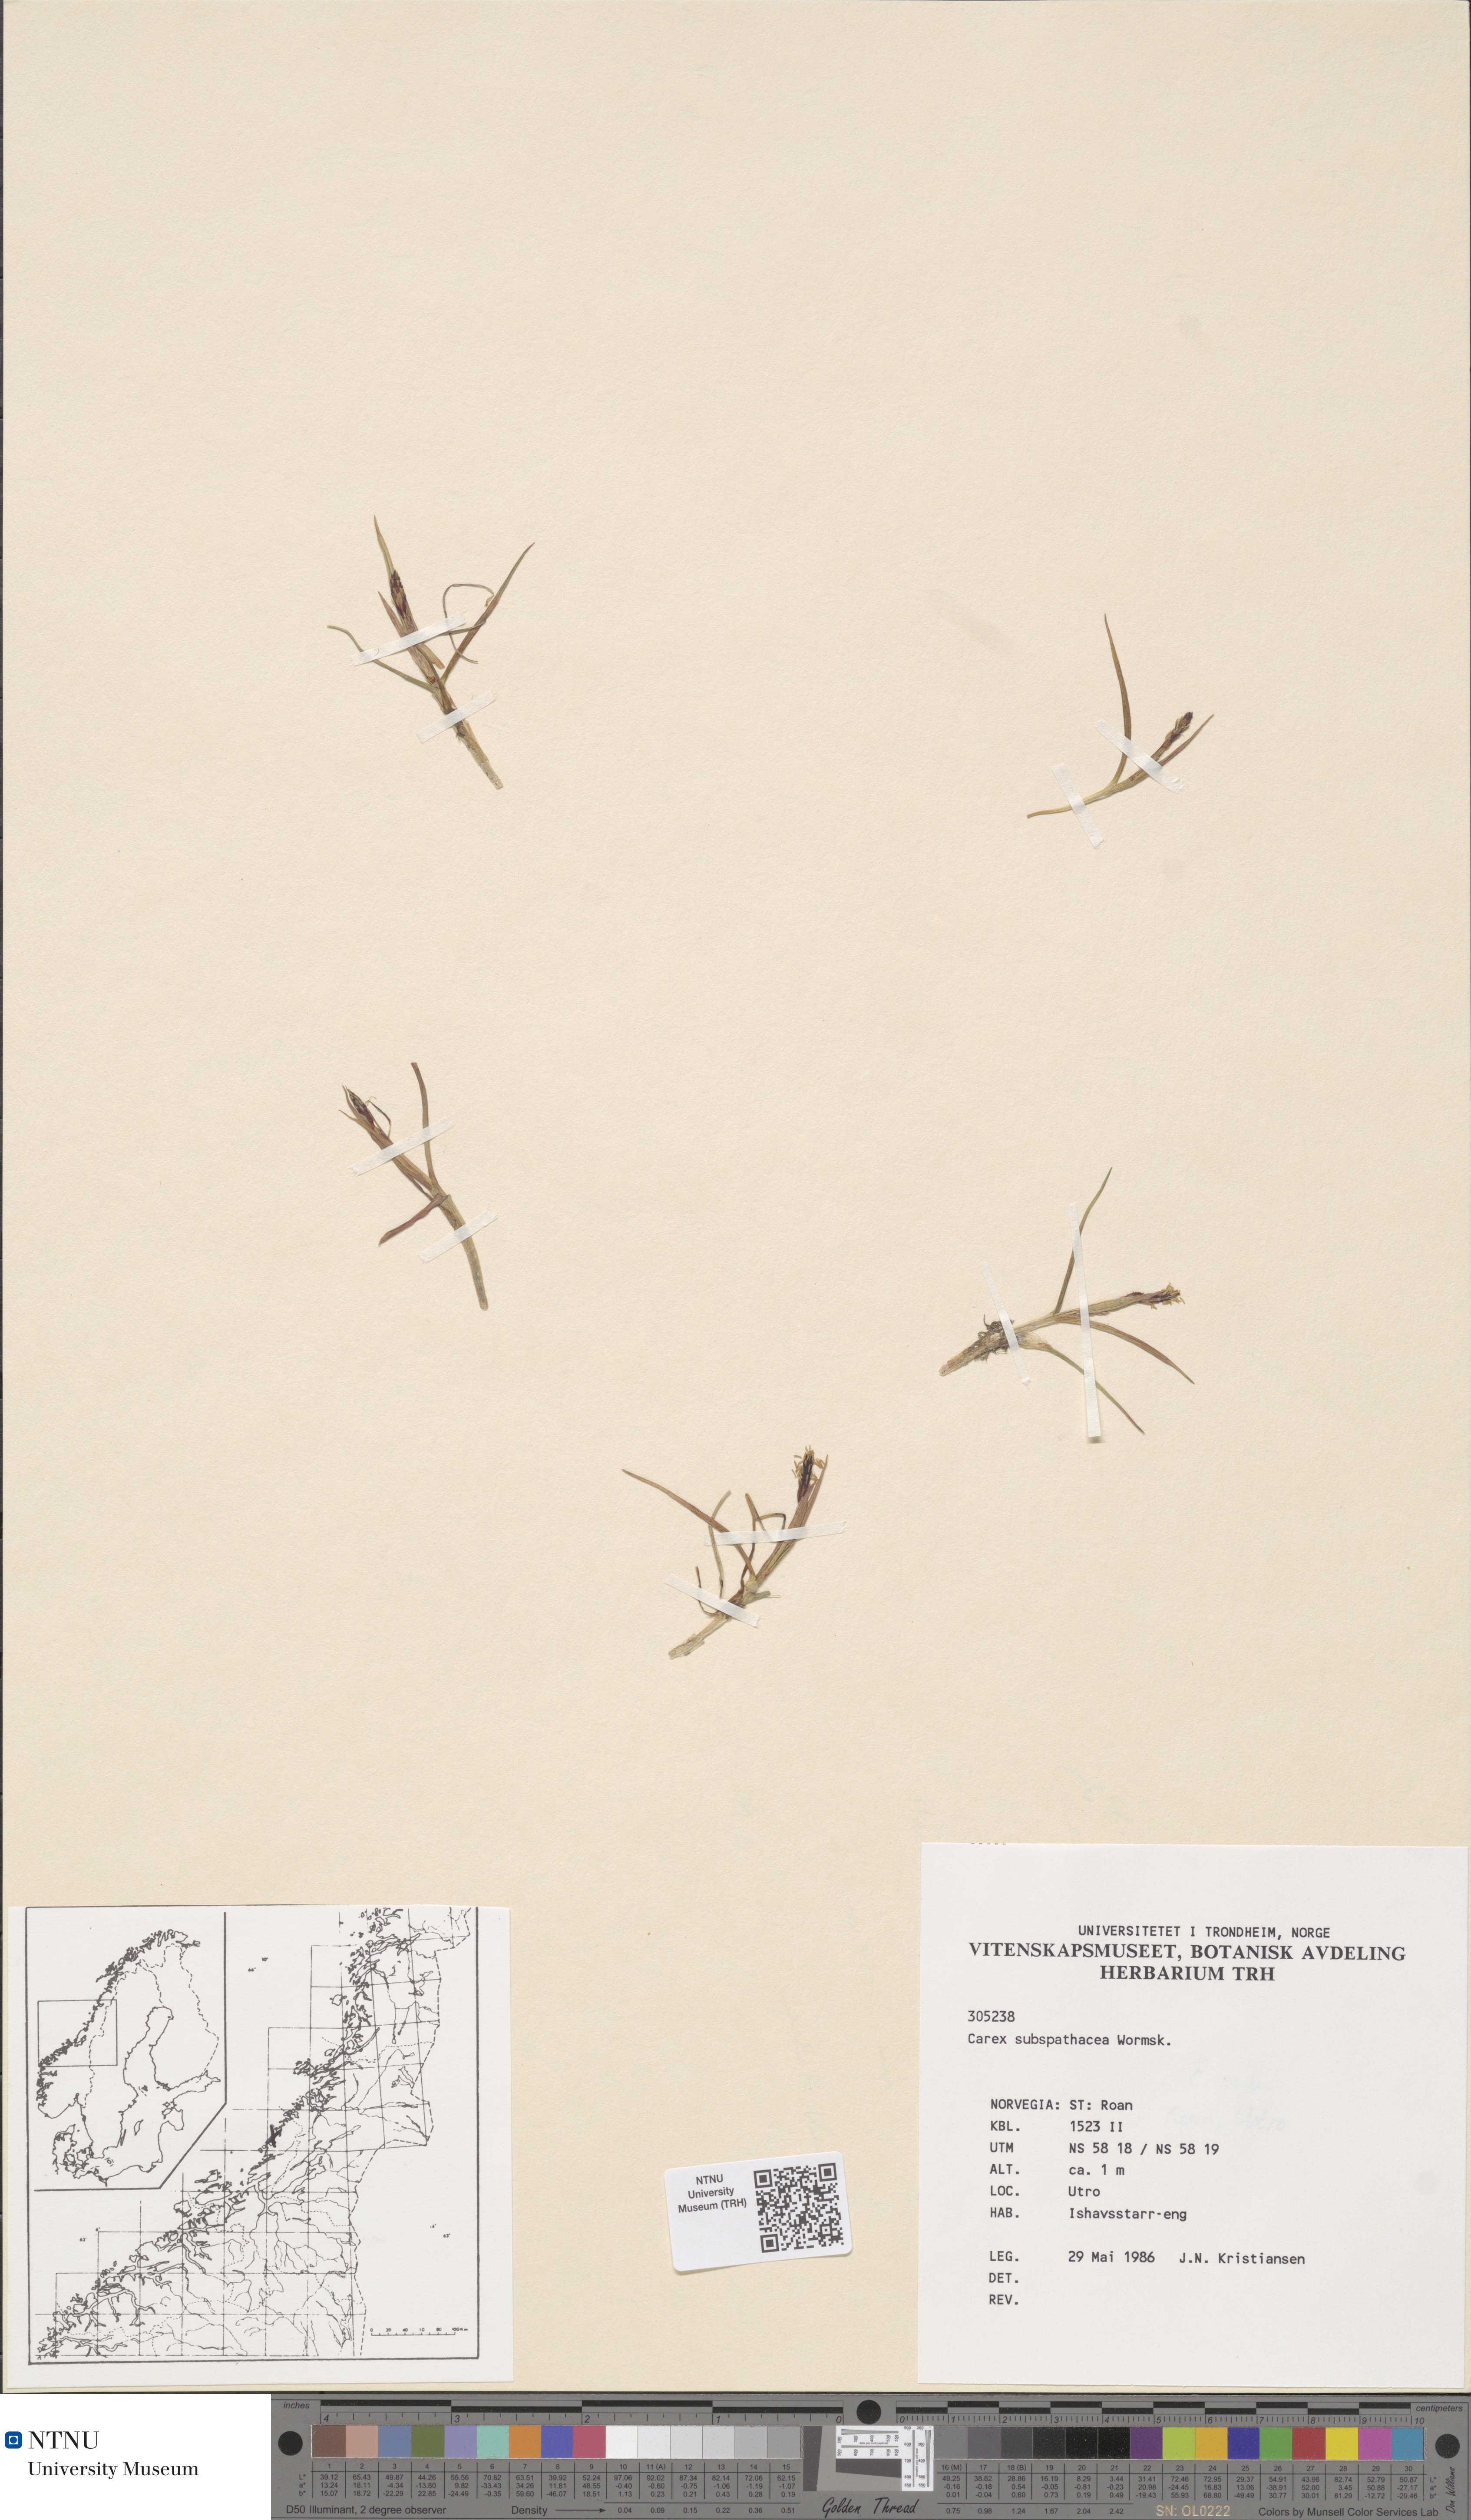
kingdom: Plantae
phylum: Tracheophyta
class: Liliopsida
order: Poales
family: Cyperaceae
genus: Carex
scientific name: Carex subspathacea
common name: Hoppner's sedge
